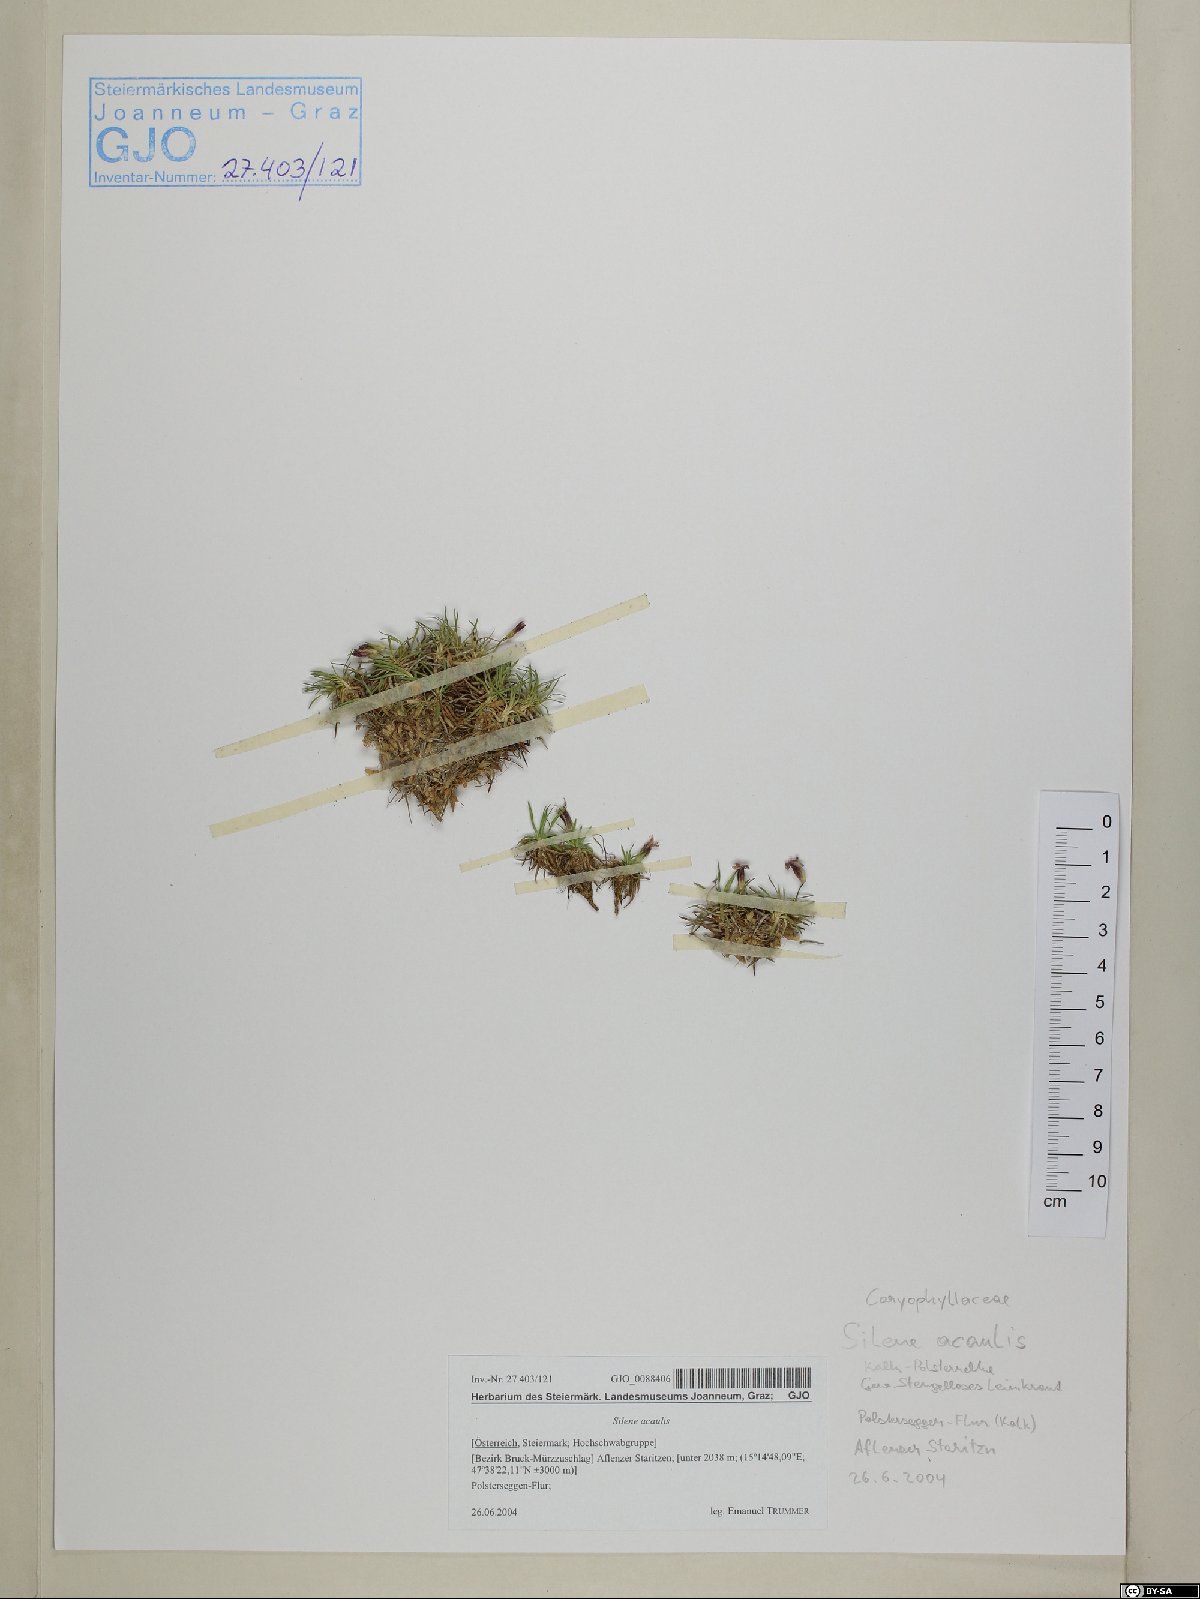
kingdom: Plantae
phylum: Tracheophyta
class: Magnoliopsida
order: Caryophyllales
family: Caryophyllaceae
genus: Silene
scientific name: Silene acaulis
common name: Moss campion
